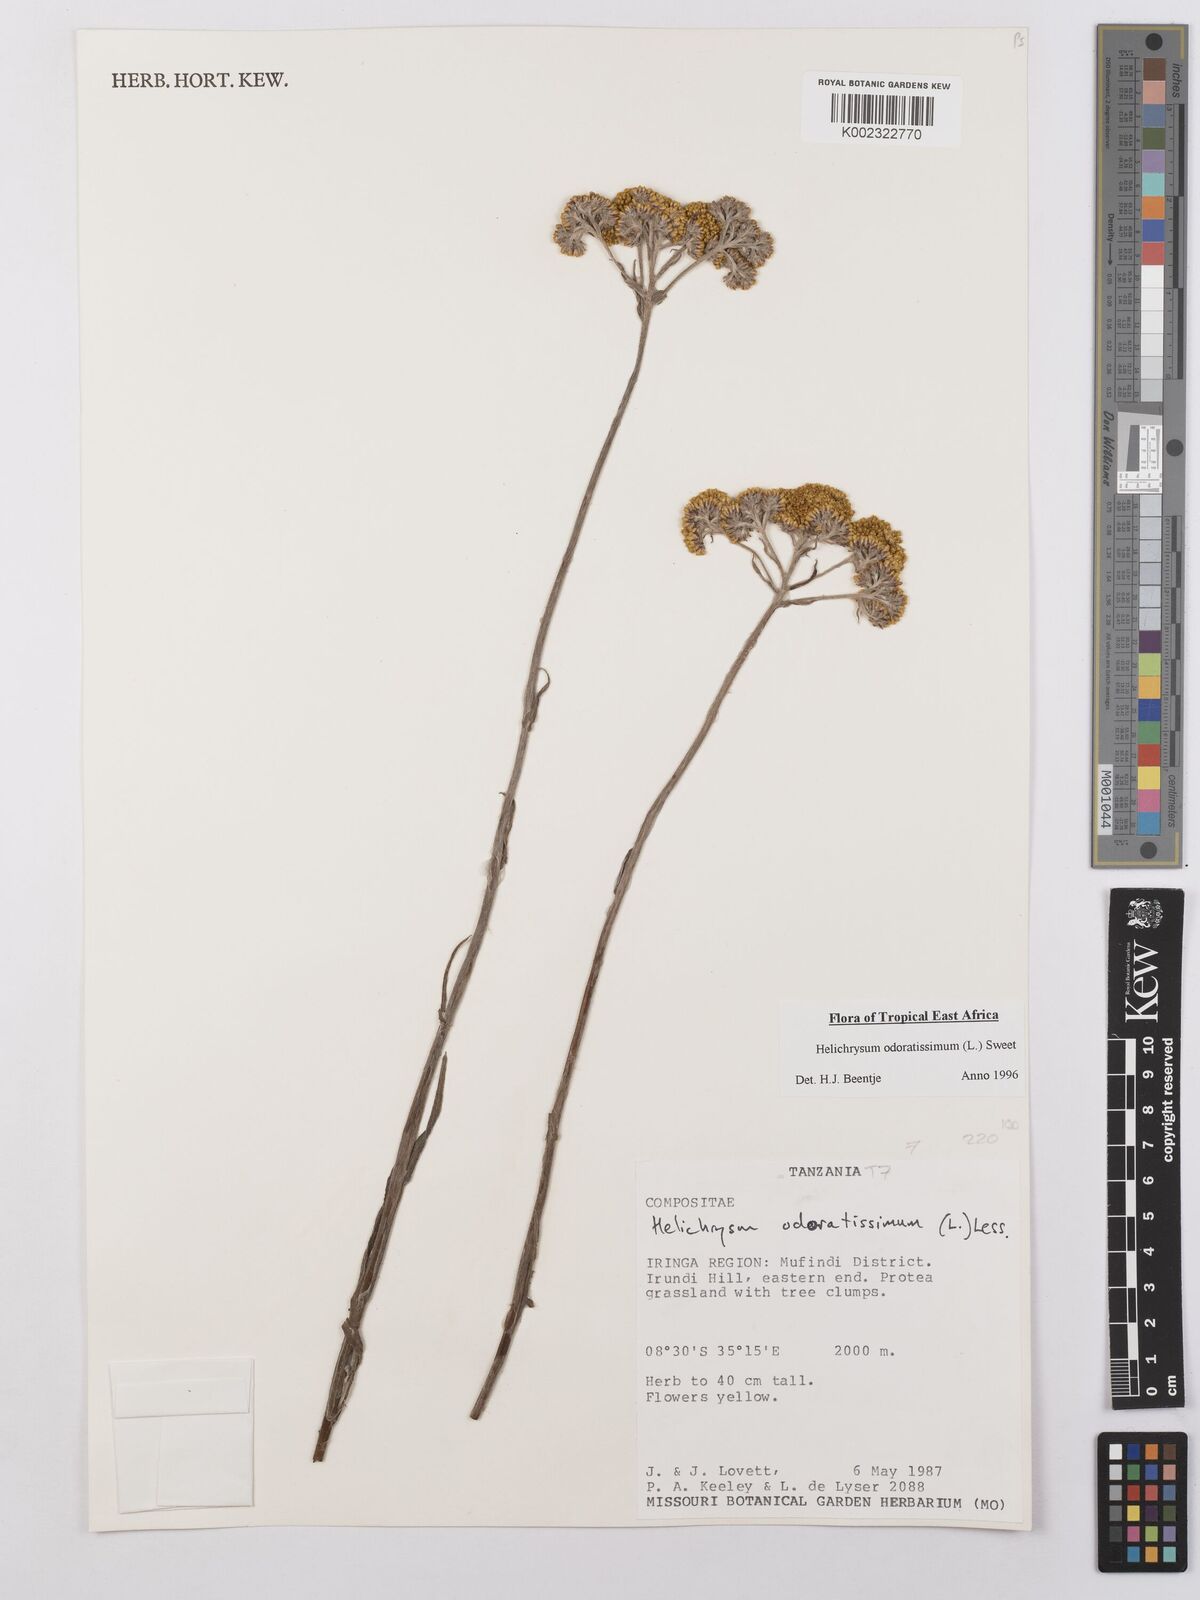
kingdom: Plantae
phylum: Tracheophyta
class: Magnoliopsida
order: Asterales
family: Asteraceae
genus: Helichrysum
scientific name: Helichrysum odoratissimum
